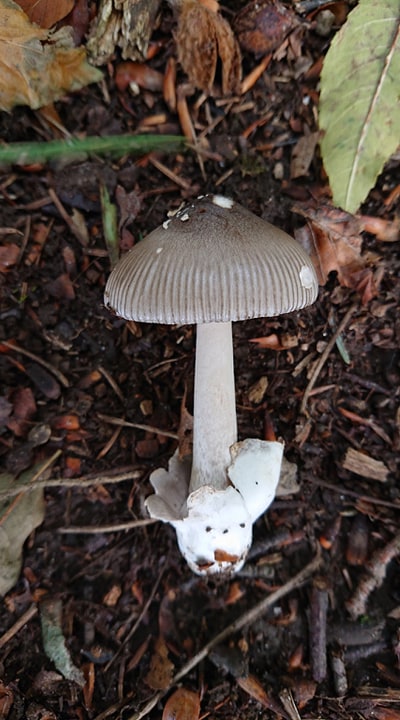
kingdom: Fungi
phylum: Basidiomycota
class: Agaricomycetes
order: Agaricales
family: Amanitaceae
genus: Amanita
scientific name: Amanita vaginata
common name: grå kam-fluesvamp
